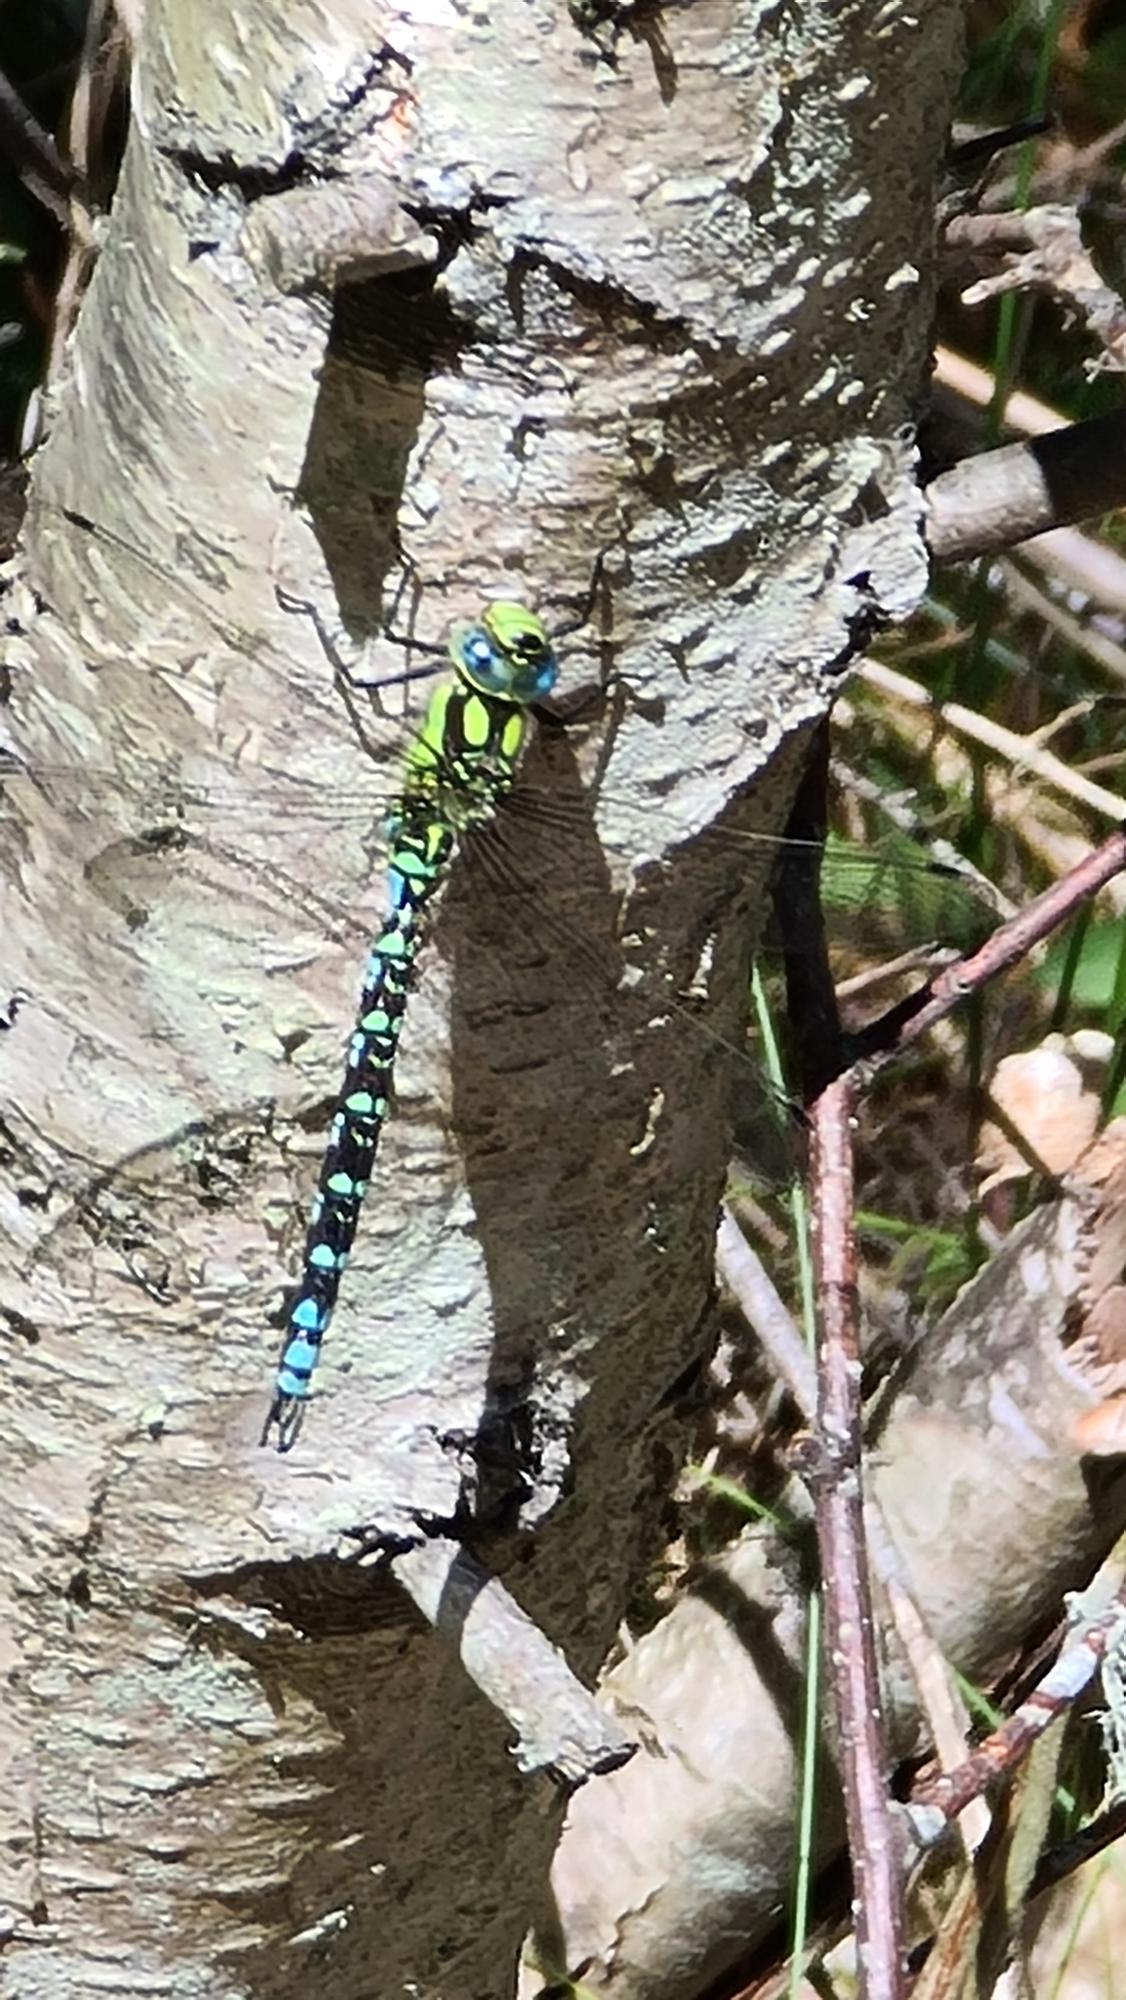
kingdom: Animalia
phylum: Arthropoda
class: Insecta
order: Odonata
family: Aeshnidae
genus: Aeshna
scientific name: Aeshna cyanea
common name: Blå mosaikguldsmed
